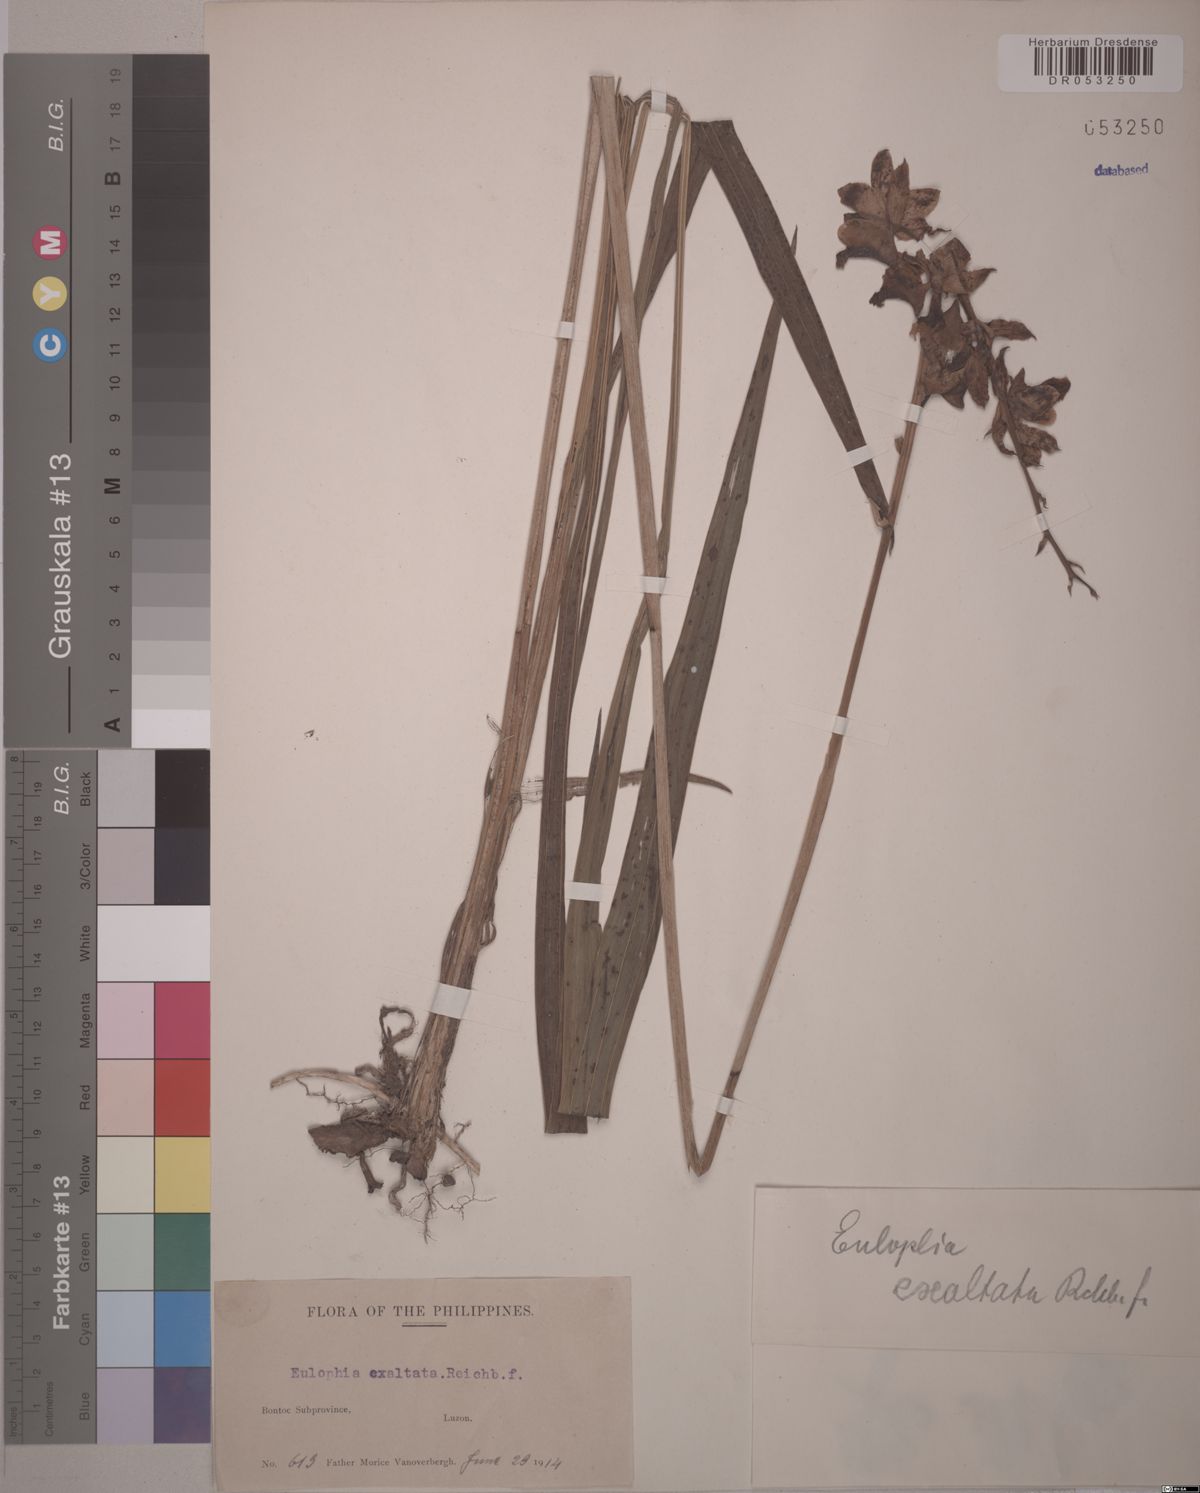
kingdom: Plantae
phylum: Tracheophyta
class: Liliopsida
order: Asparagales
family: Orchidaceae
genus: Eulophia
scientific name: Eulophia exaltata
